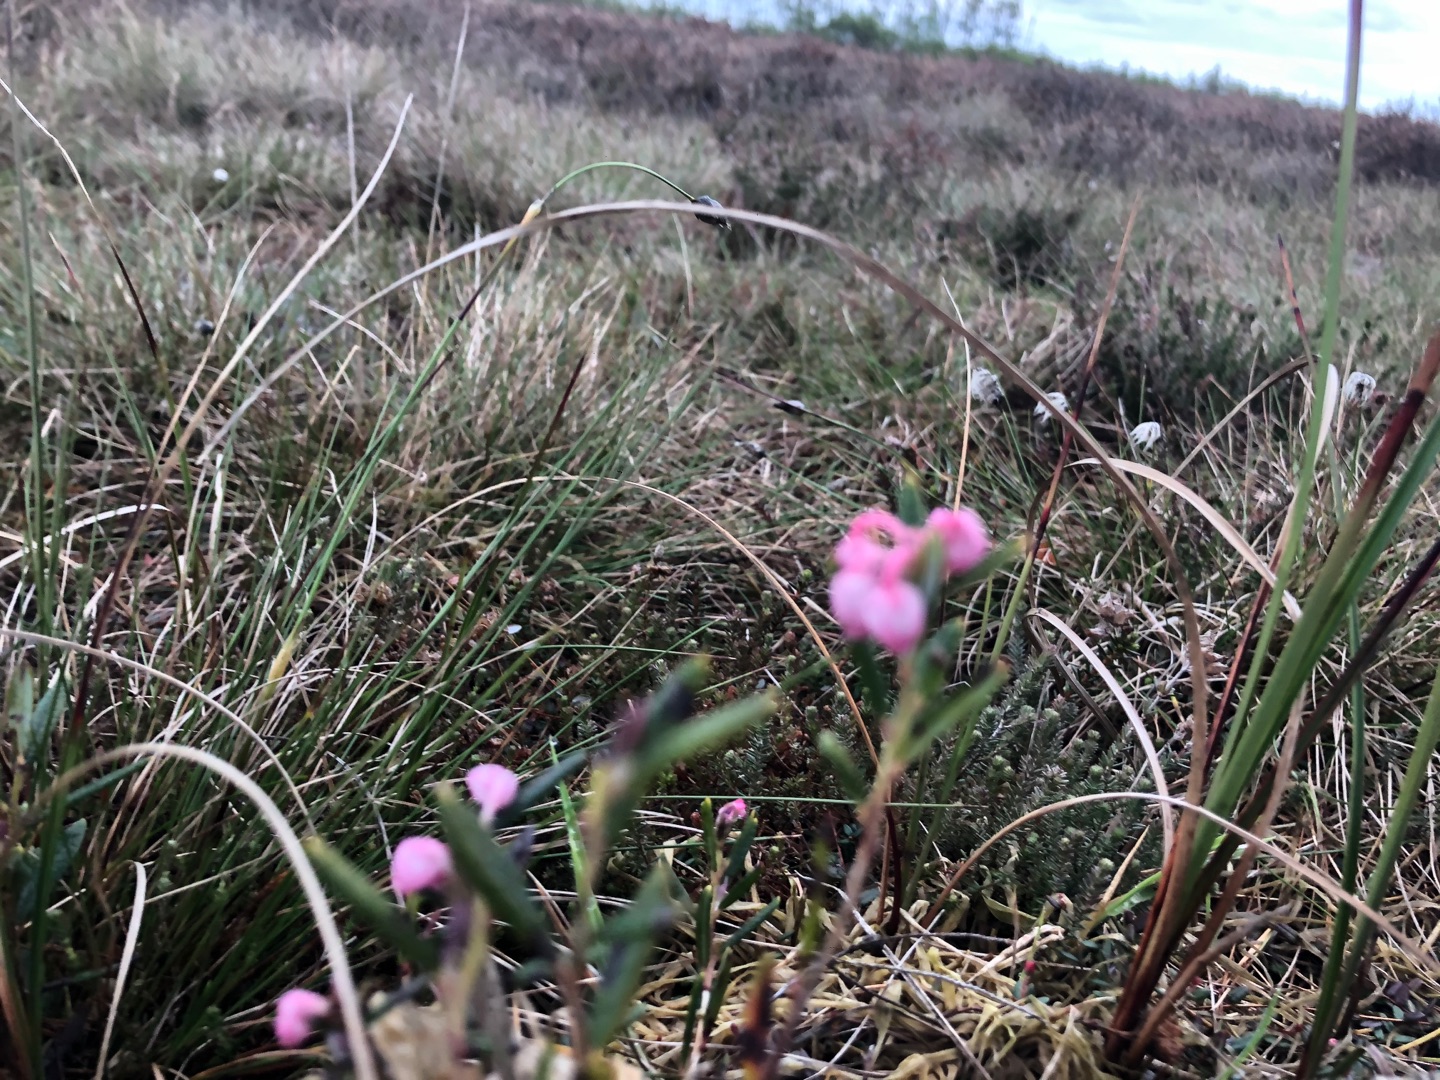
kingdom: Plantae
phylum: Tracheophyta
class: Magnoliopsida
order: Ericales
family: Ericaceae
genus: Andromeda
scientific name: Andromeda polifolia
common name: Rosmarinlyng
